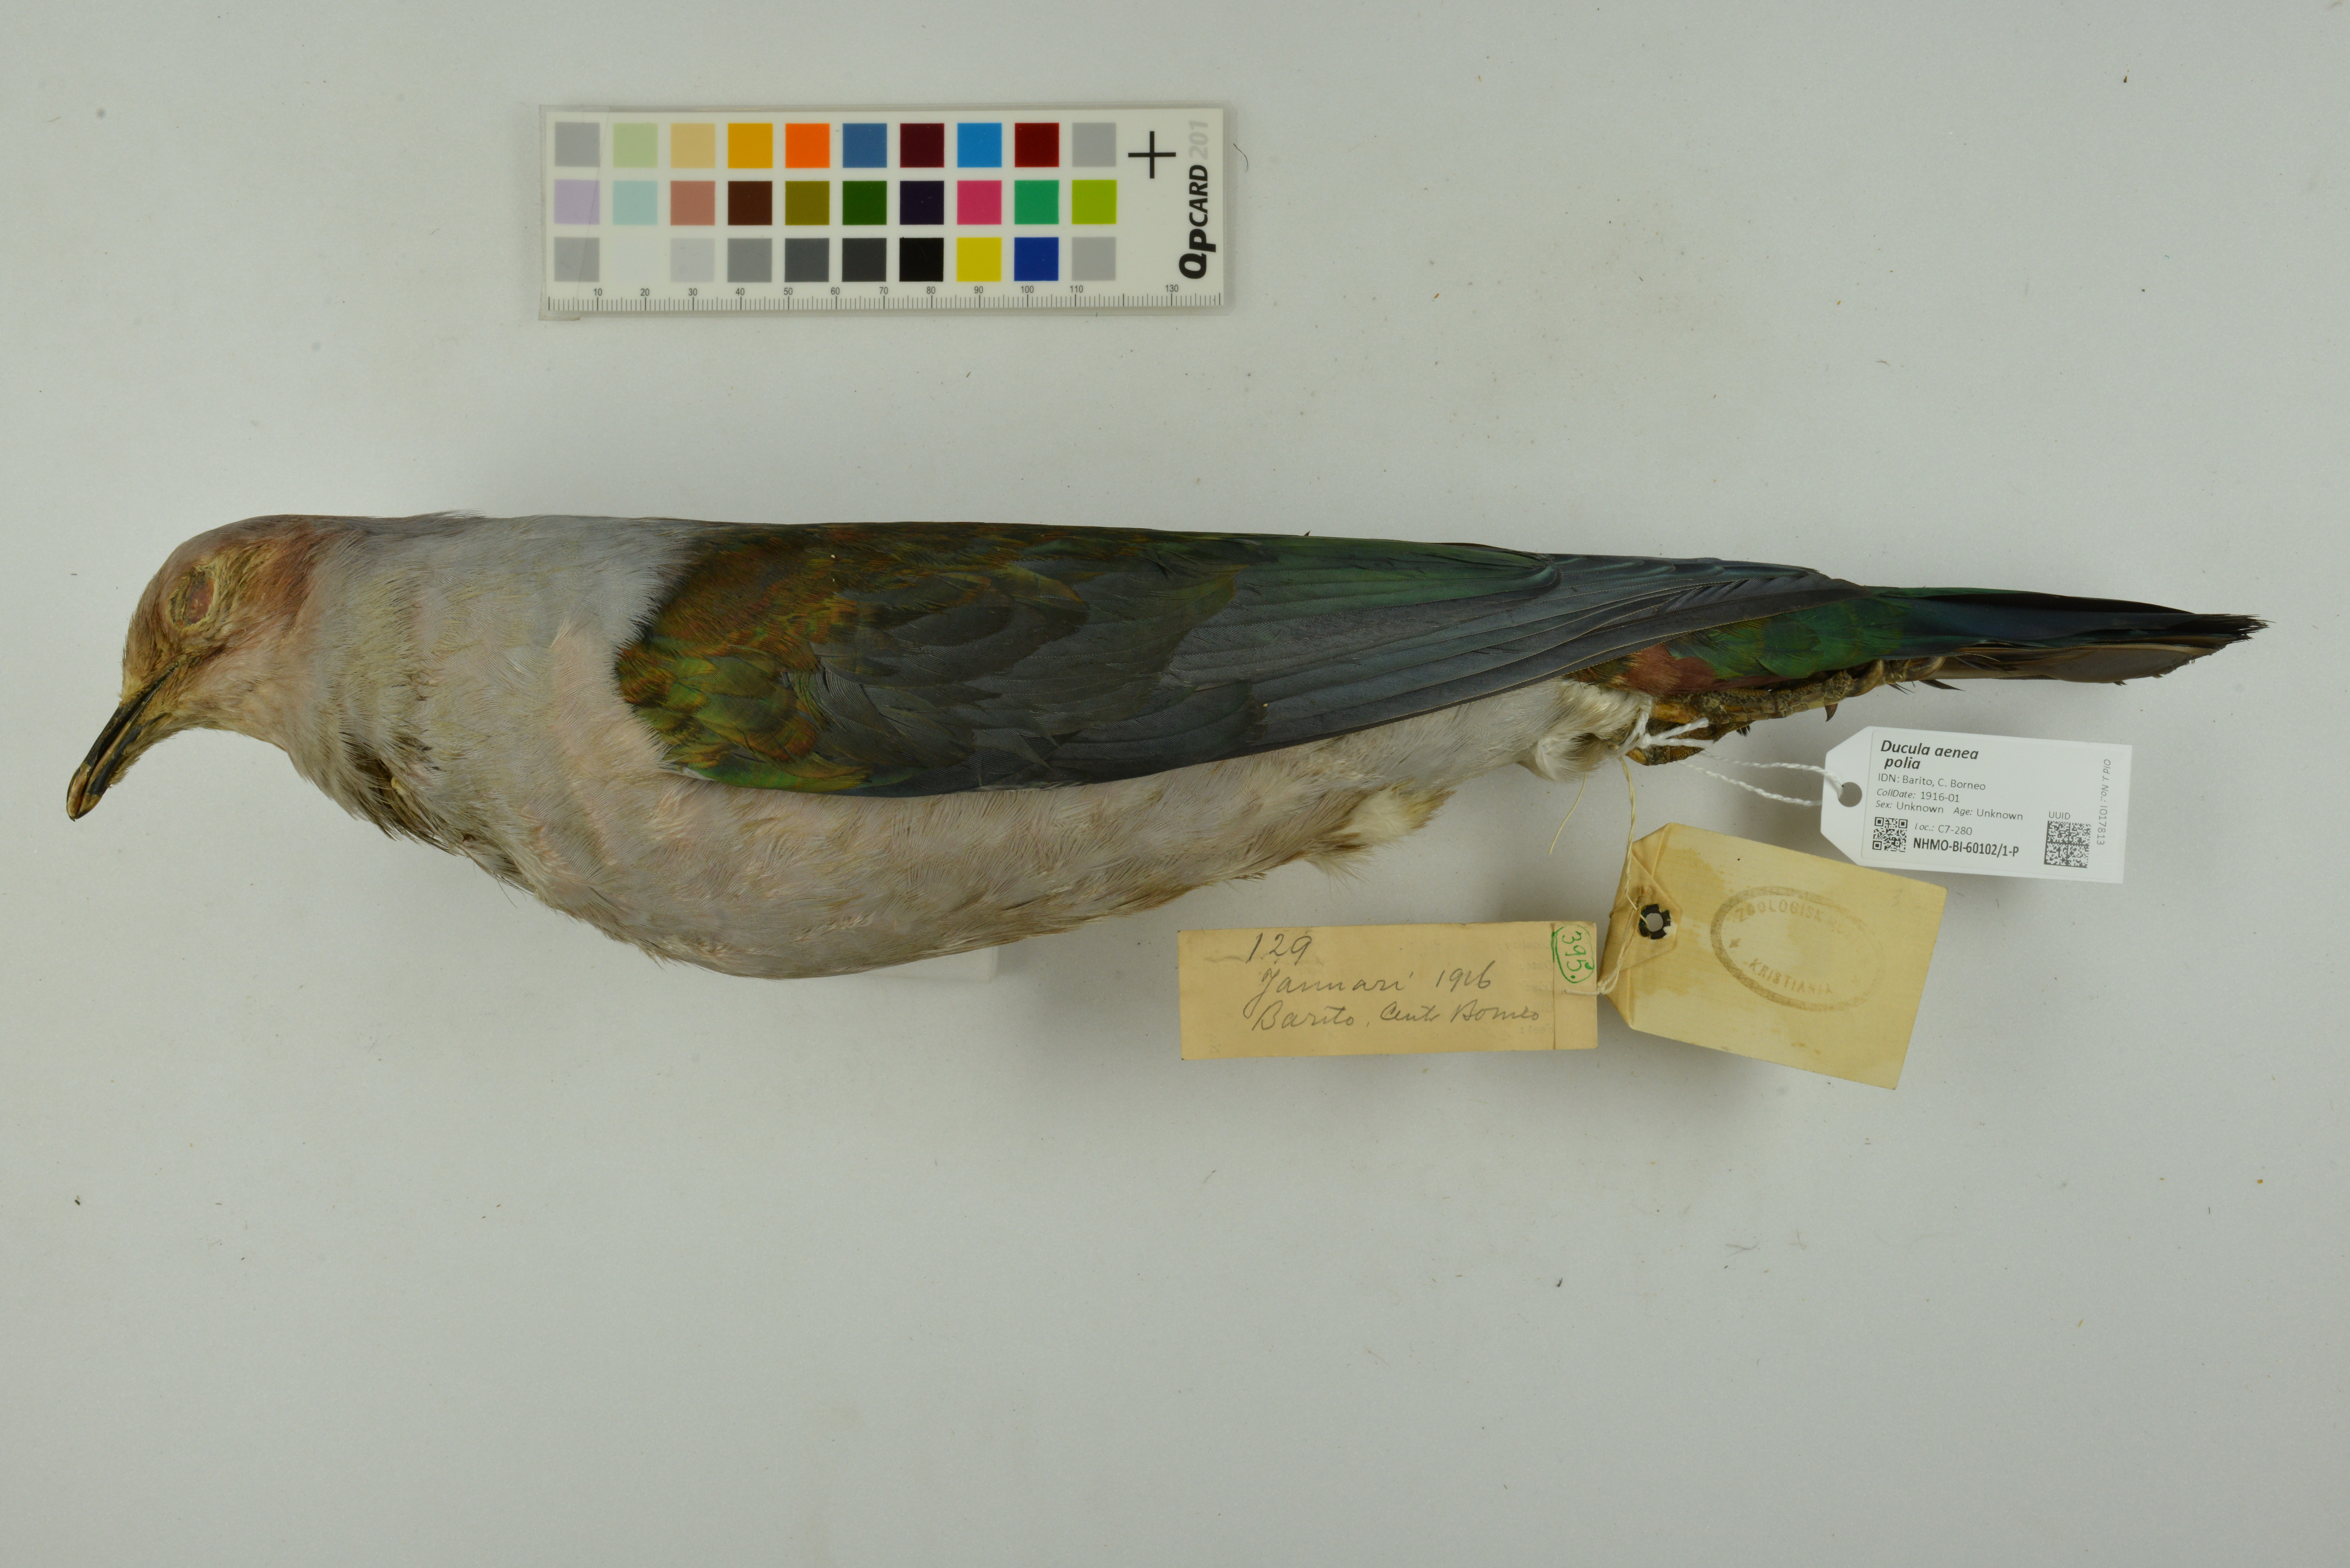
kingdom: Animalia
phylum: Chordata
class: Aves
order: Columbiformes
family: Columbidae
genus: Ducula
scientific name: Ducula aenea
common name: Green imperial pigeon
